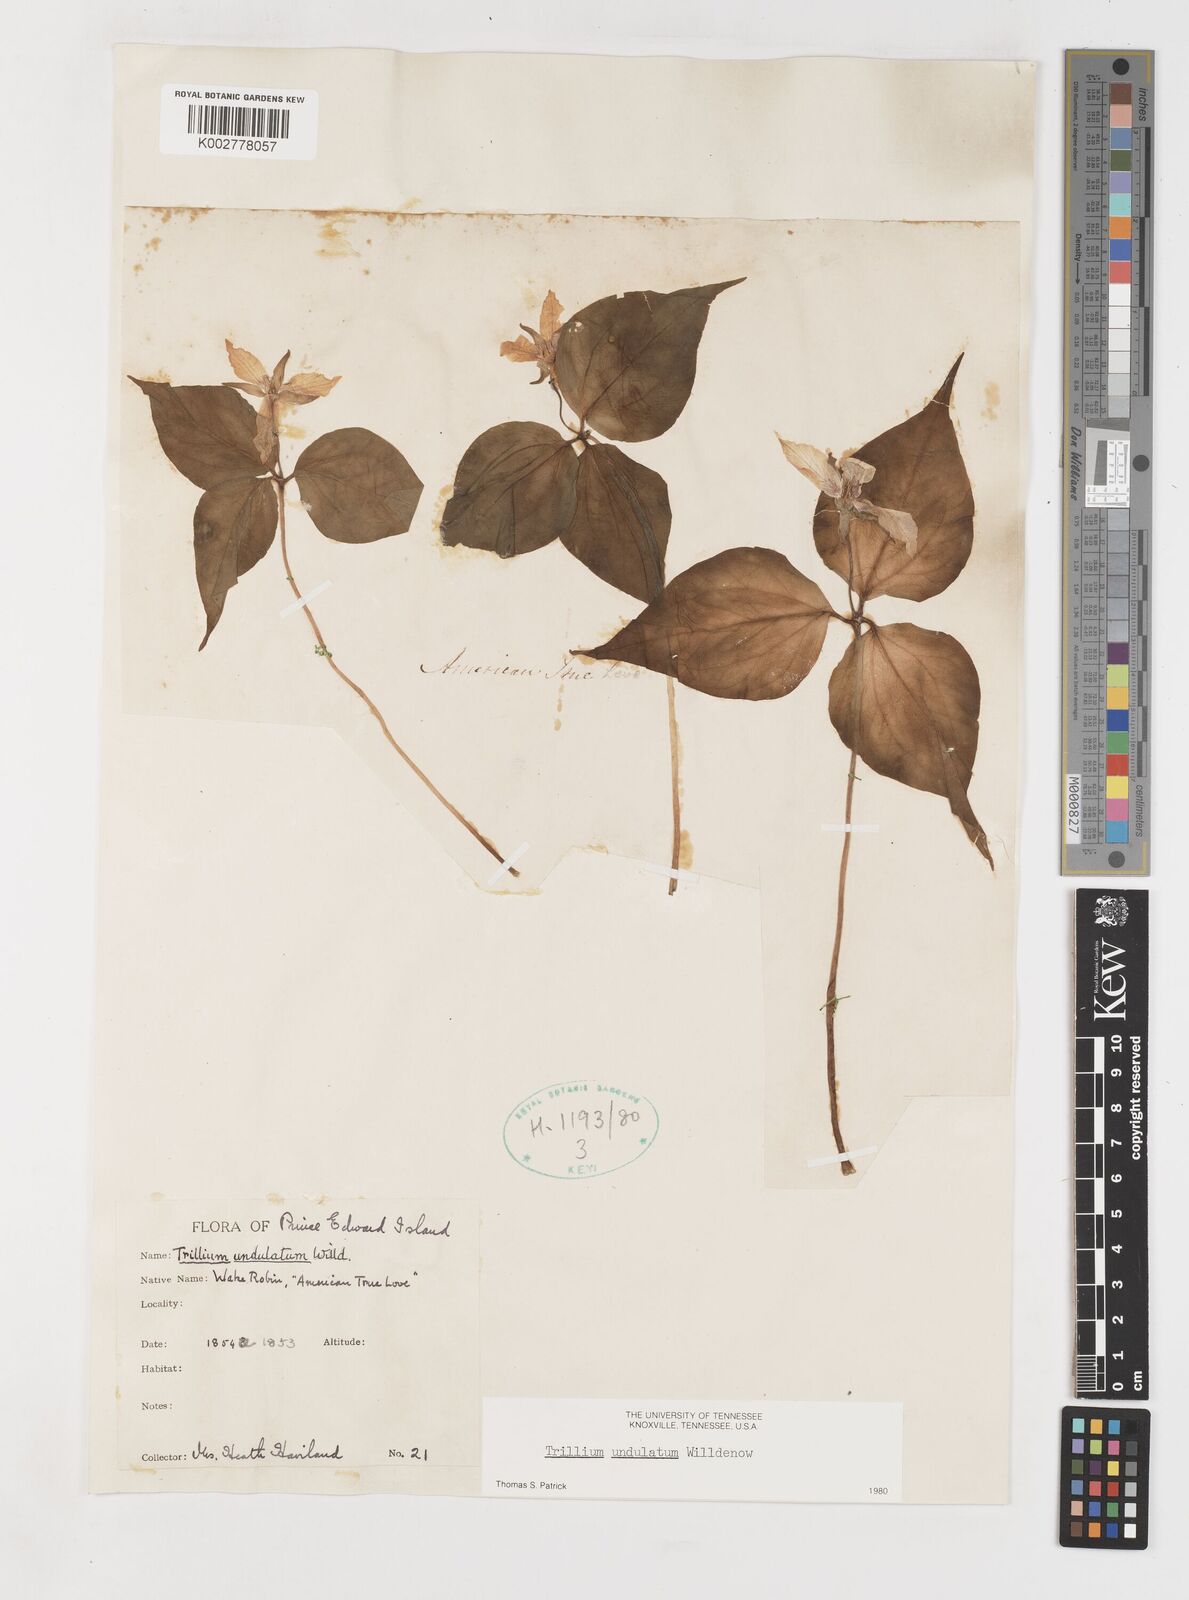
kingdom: Plantae
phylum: Tracheophyta
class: Liliopsida
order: Liliales
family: Melanthiaceae
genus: Trillium
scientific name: Trillium undulatum
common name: Paint trillium
